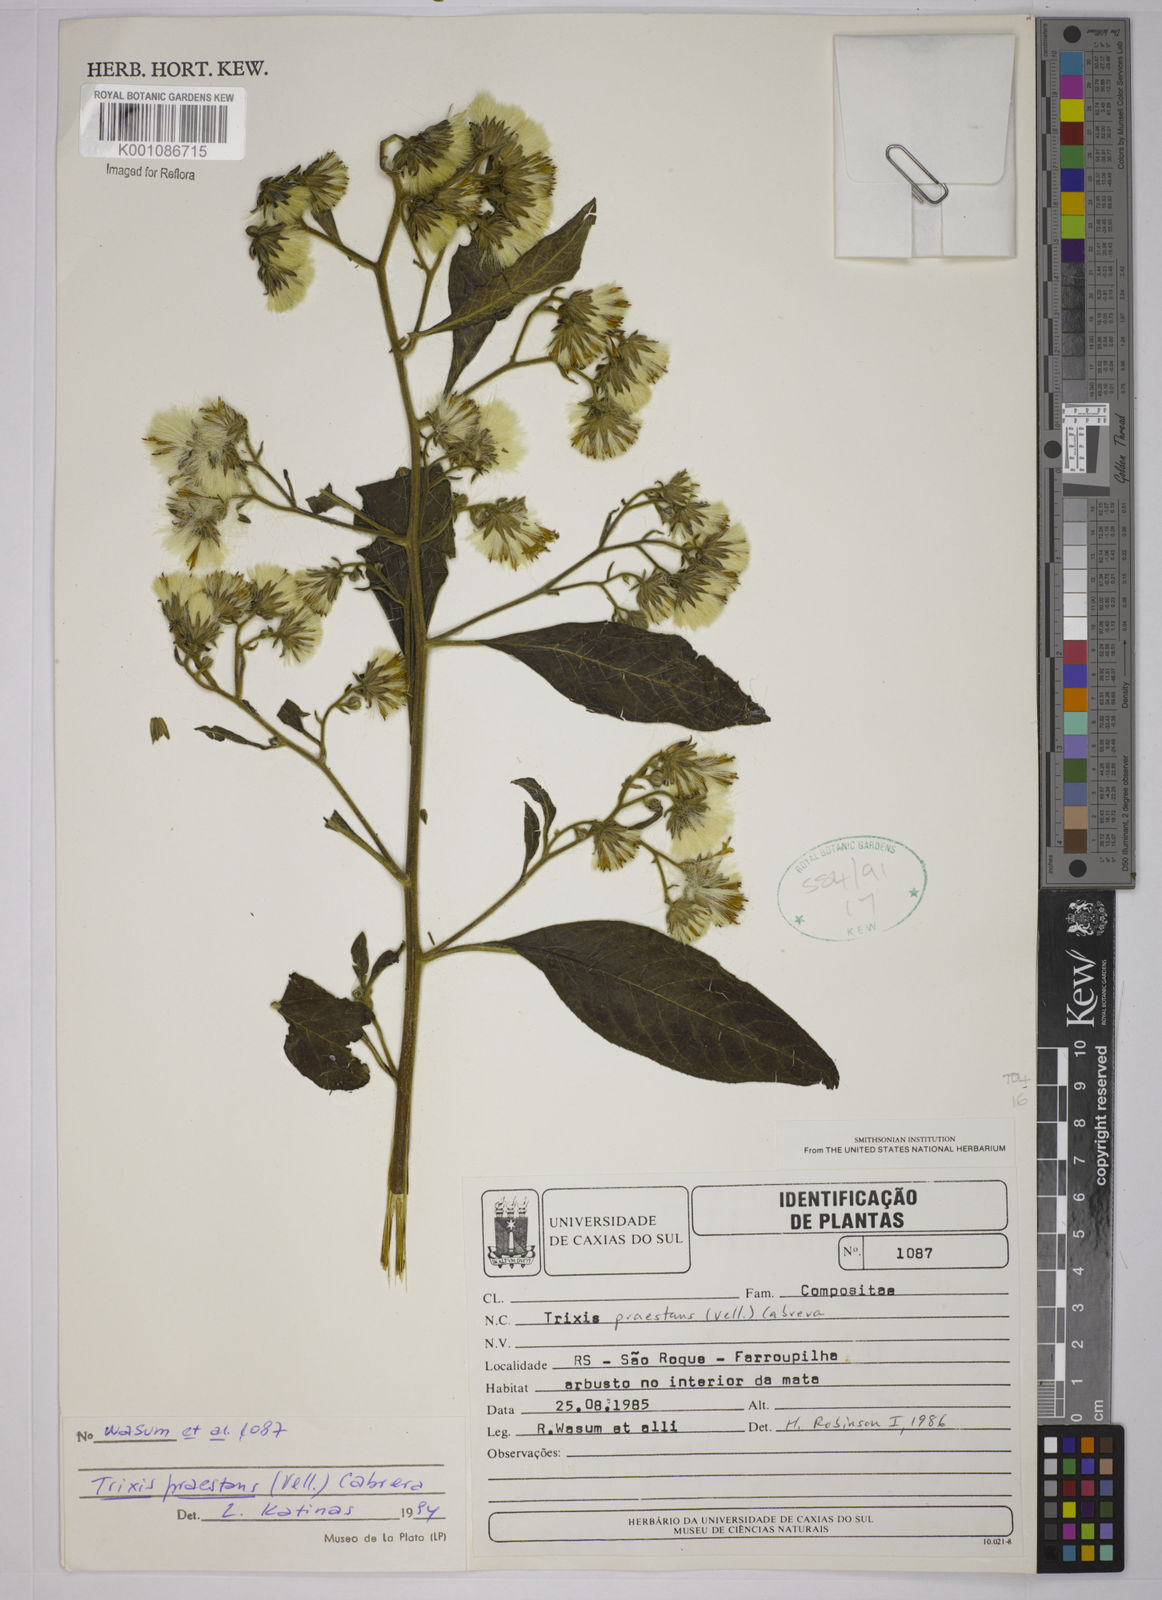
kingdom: Plantae
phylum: Tracheophyta
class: Magnoliopsida
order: Asterales
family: Asteraceae
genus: Trixis
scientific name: Trixis praestans
